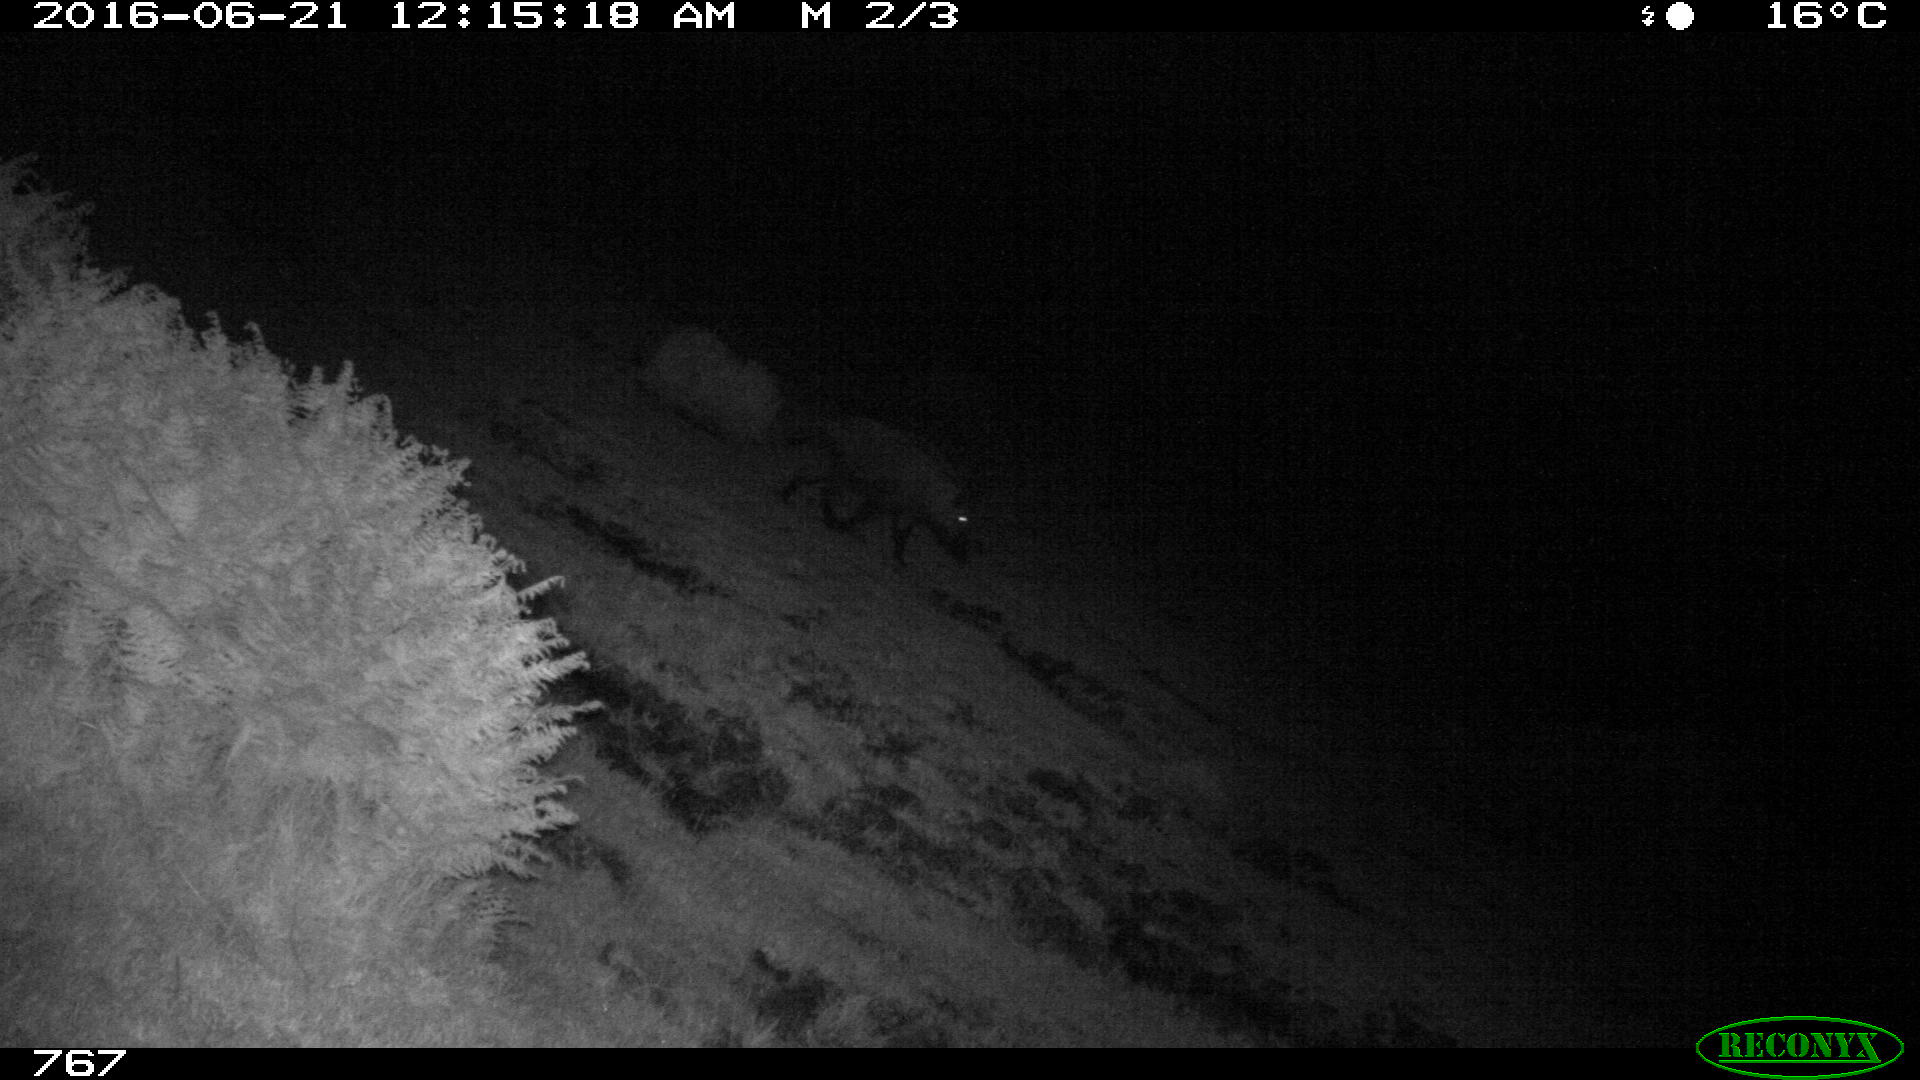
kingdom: Animalia
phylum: Chordata
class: Mammalia
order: Artiodactyla
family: Suidae
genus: Sus
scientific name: Sus scrofa
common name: Wild boar
